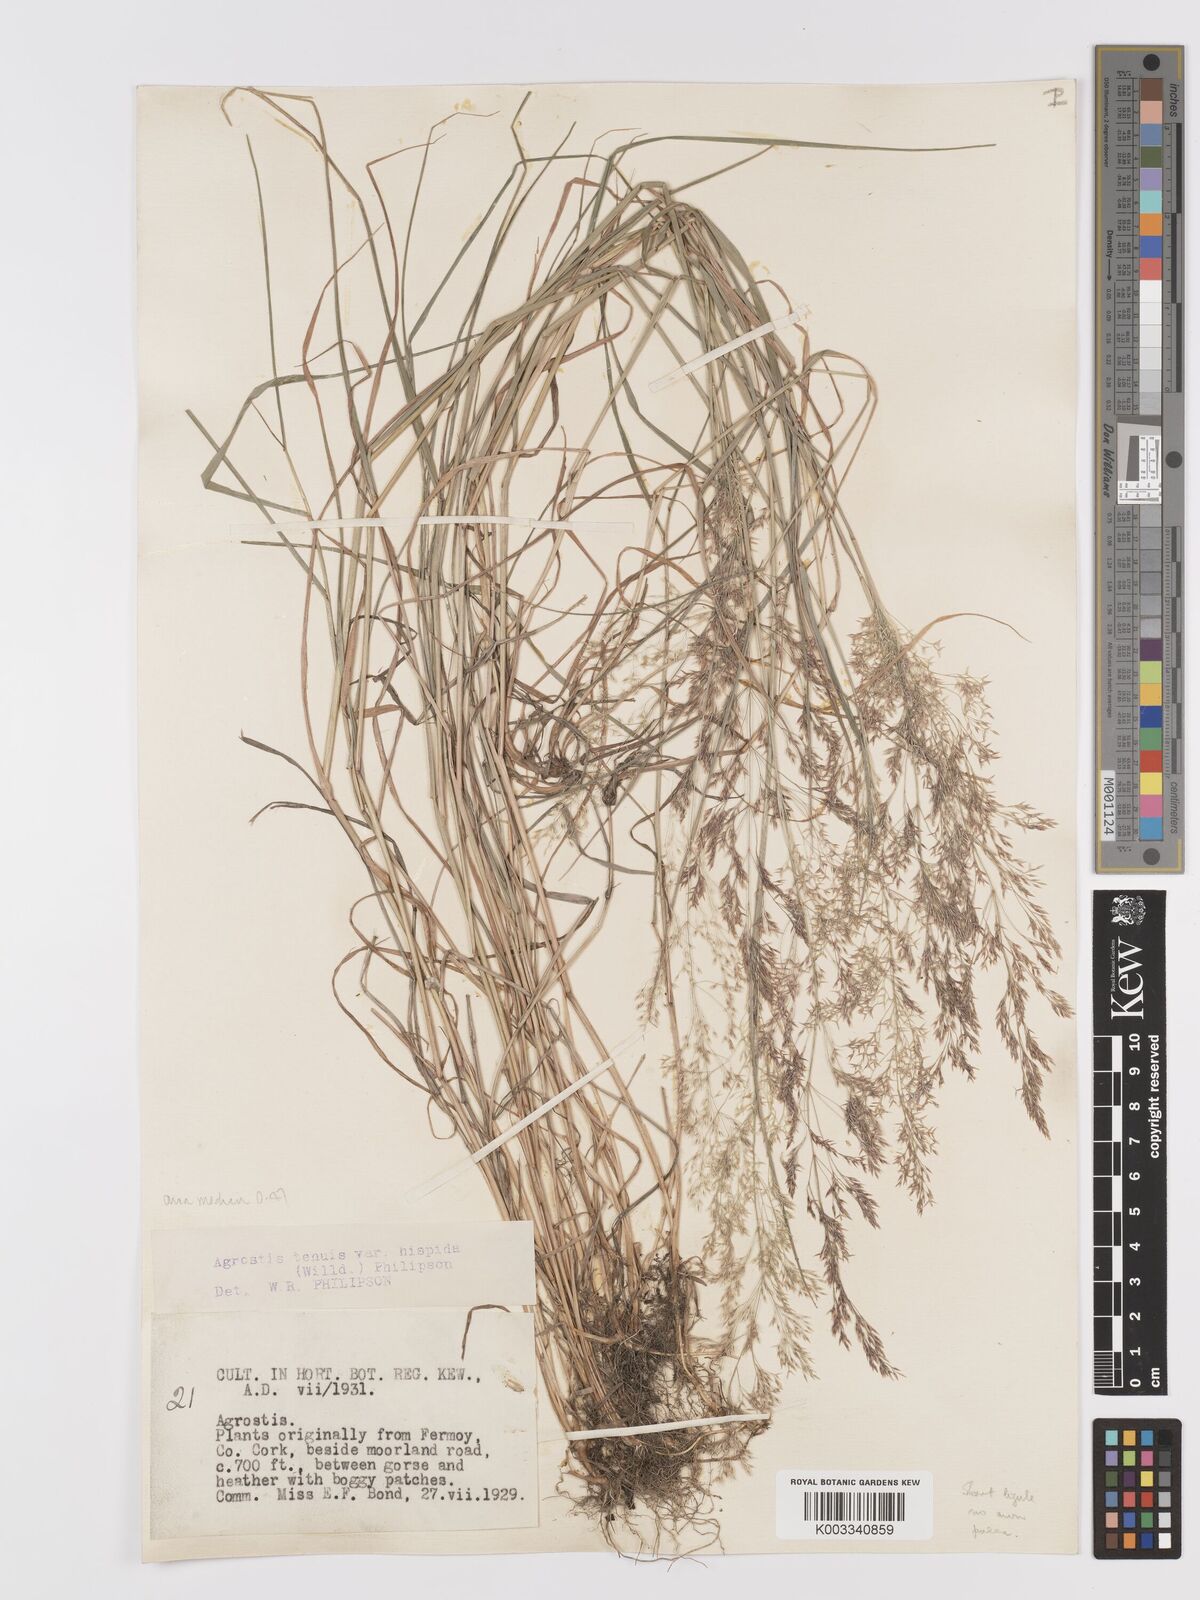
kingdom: Plantae
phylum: Tracheophyta
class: Liliopsida
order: Poales
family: Poaceae
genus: Agrostis
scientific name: Agrostis capillaris
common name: Colonial bentgrass
